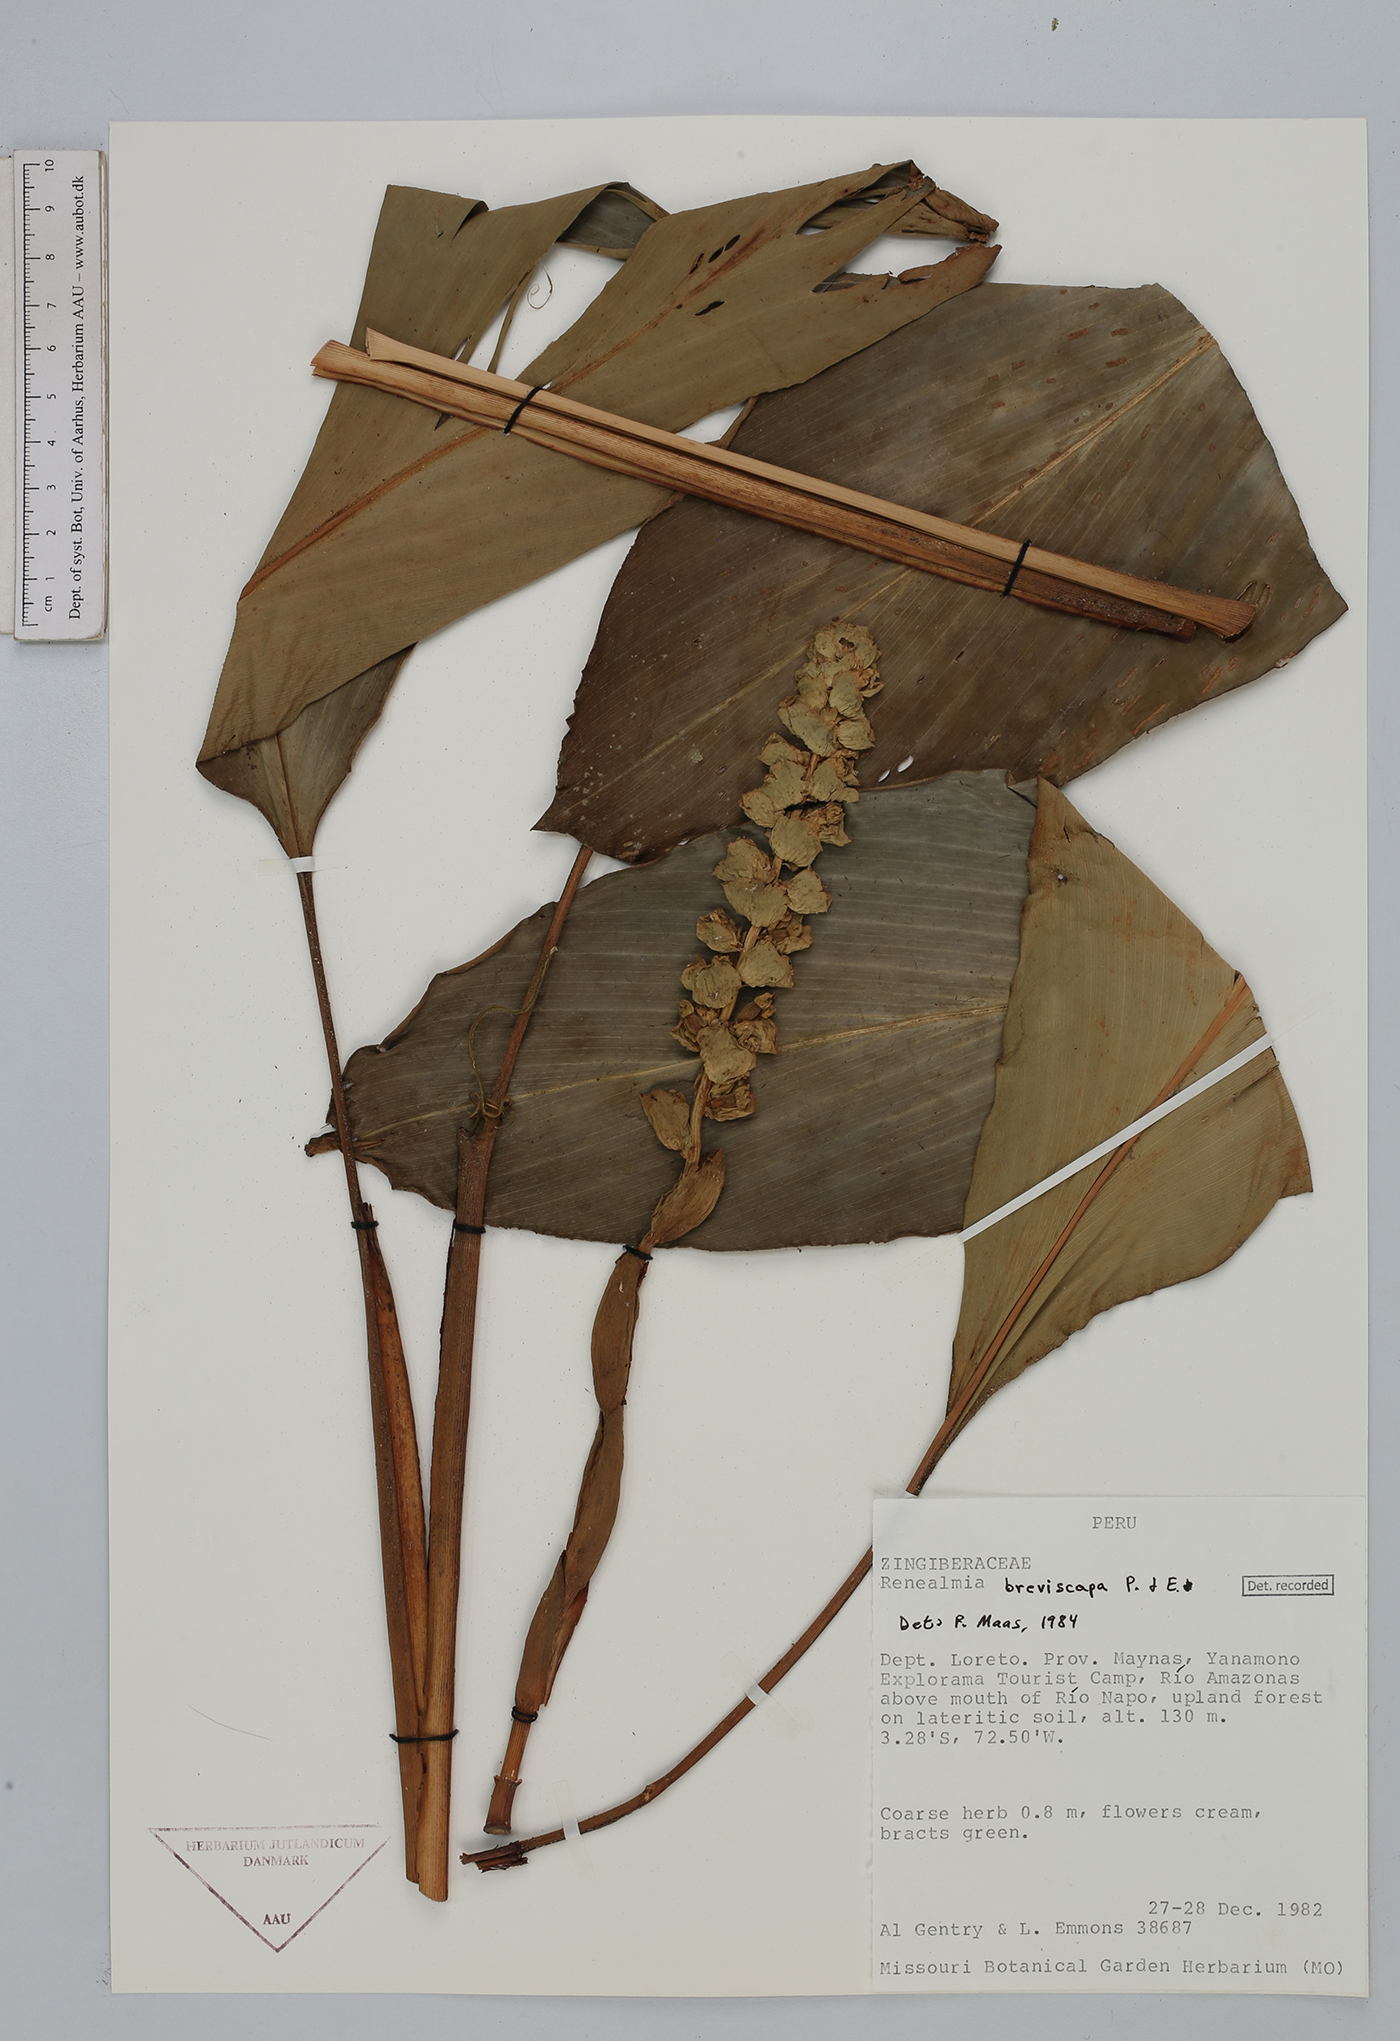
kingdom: Plantae
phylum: Tracheophyta
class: Liliopsida
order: Zingiberales
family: Zingiberaceae
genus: Renealmia
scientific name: Renealmia breviscapa
